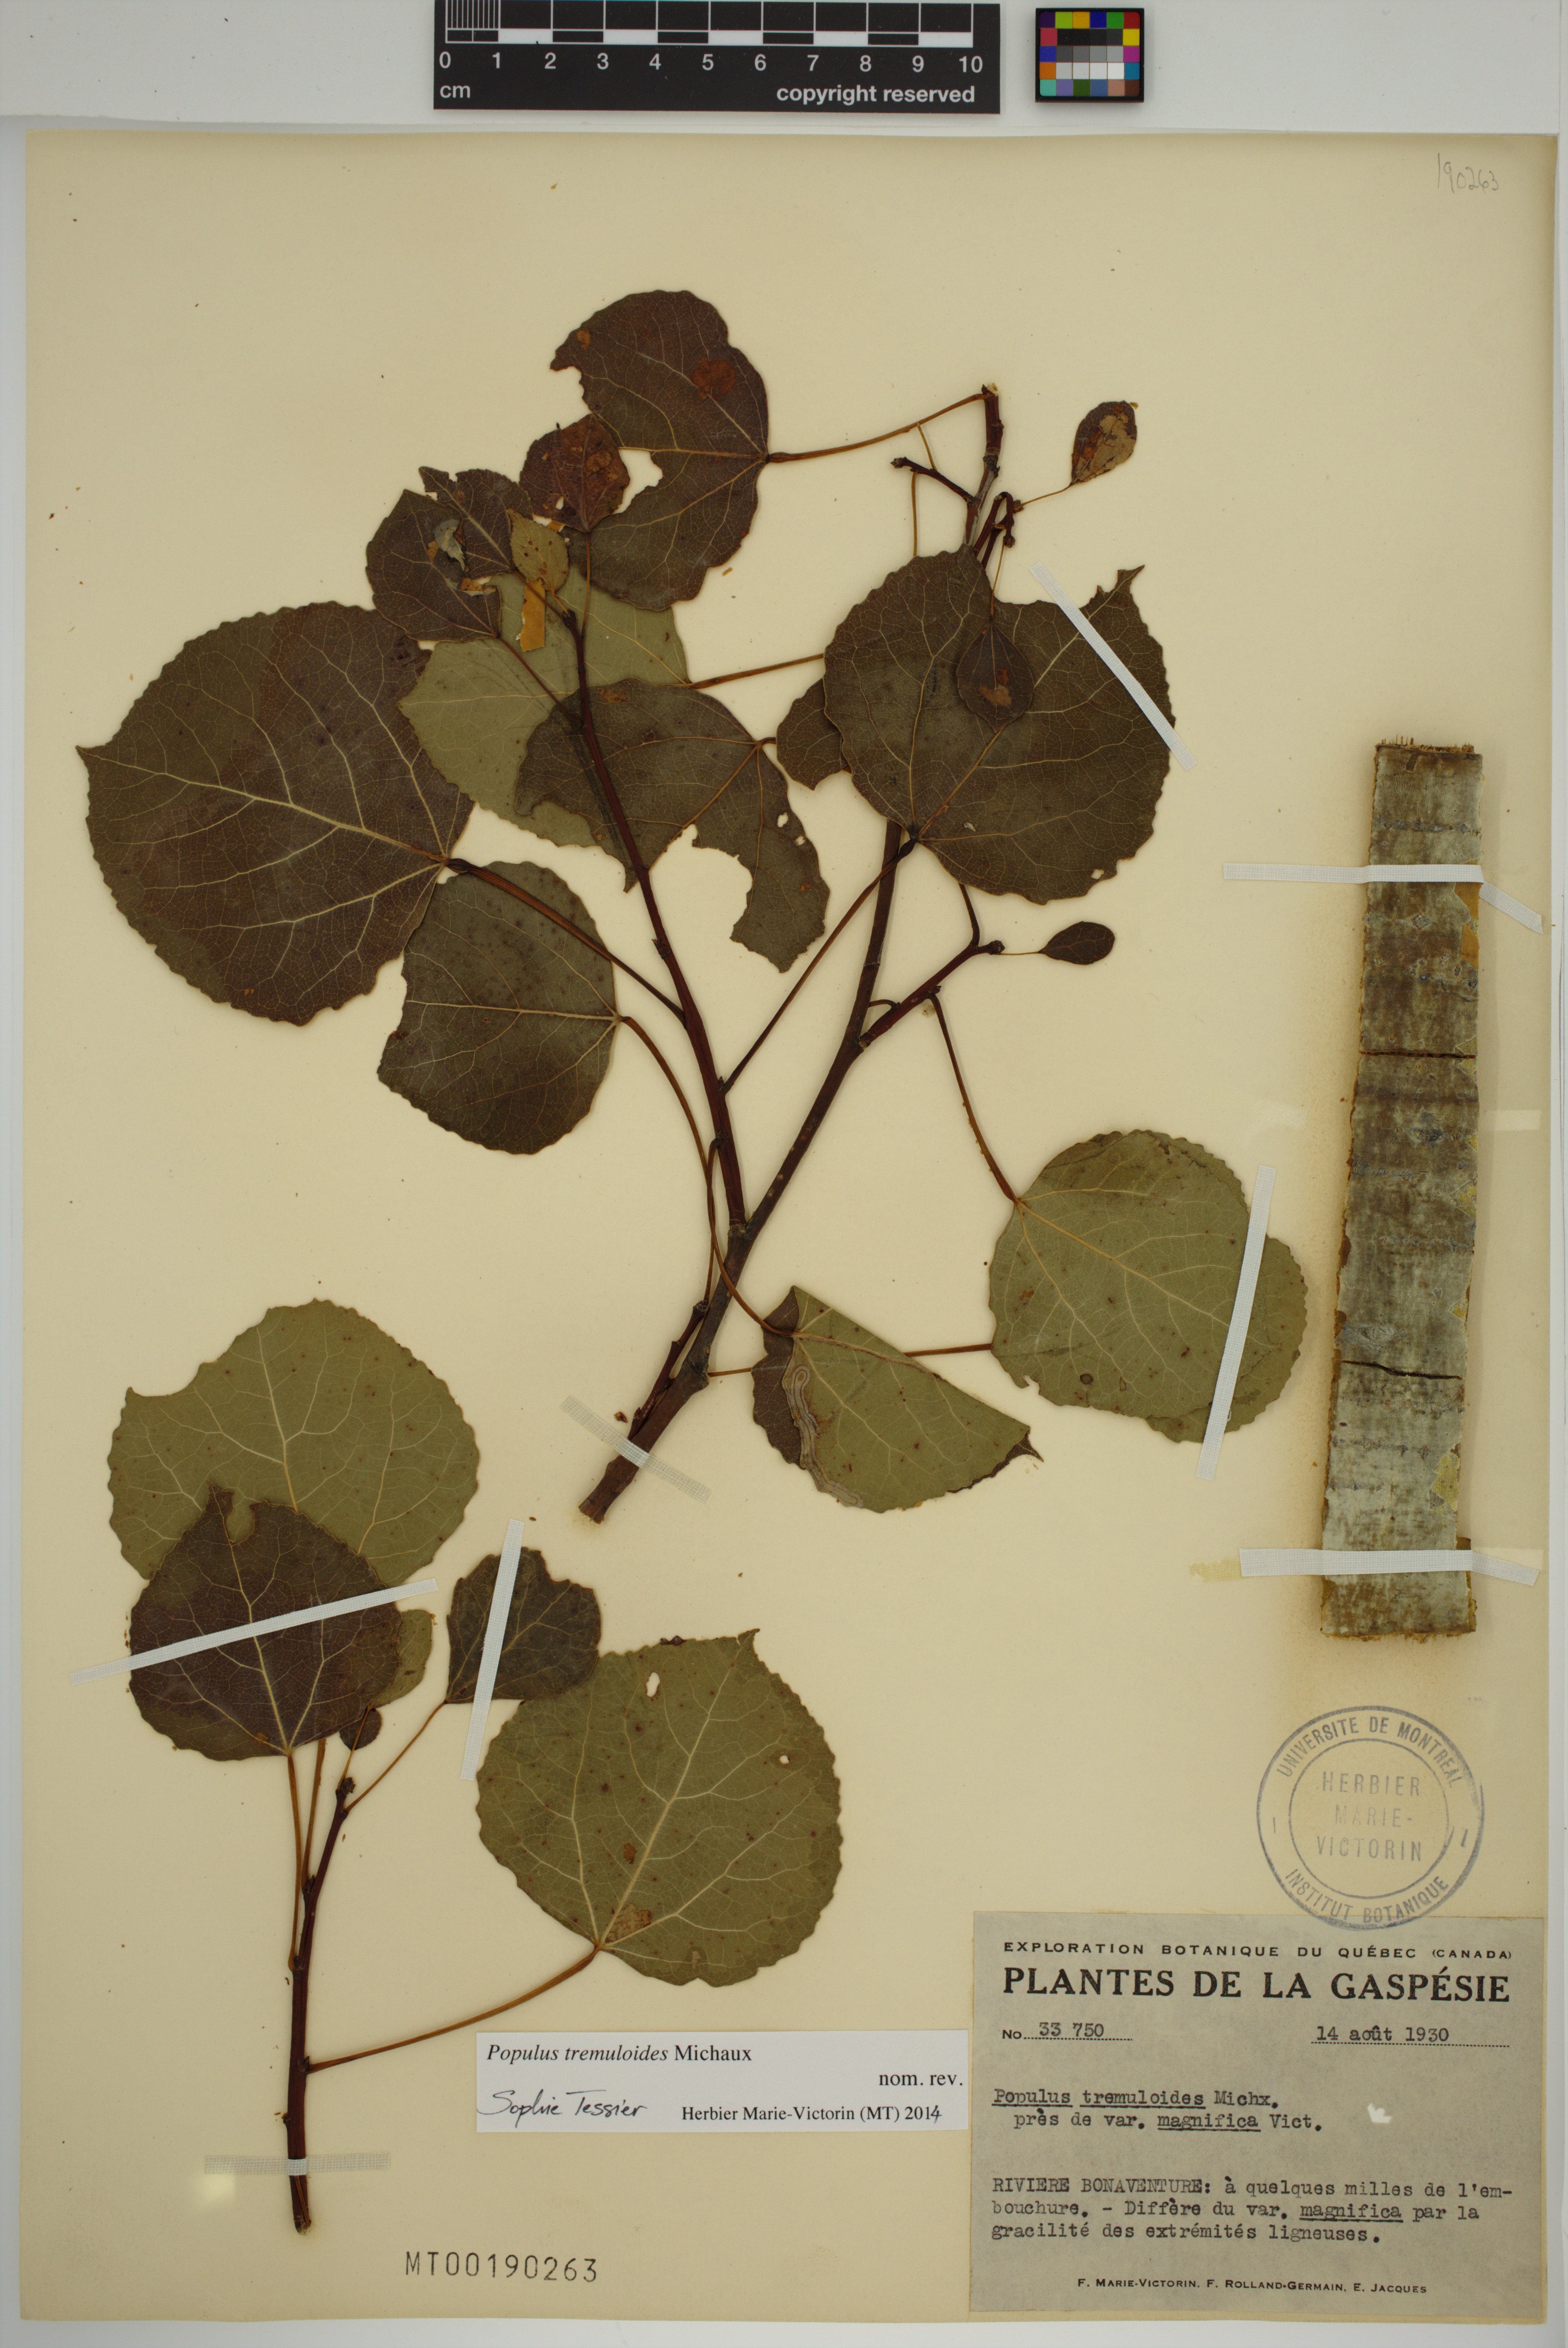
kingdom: Plantae
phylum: Tracheophyta
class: Magnoliopsida
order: Malpighiales
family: Salicaceae
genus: Populus
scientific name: Populus tremuloides
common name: Quaking aspen
